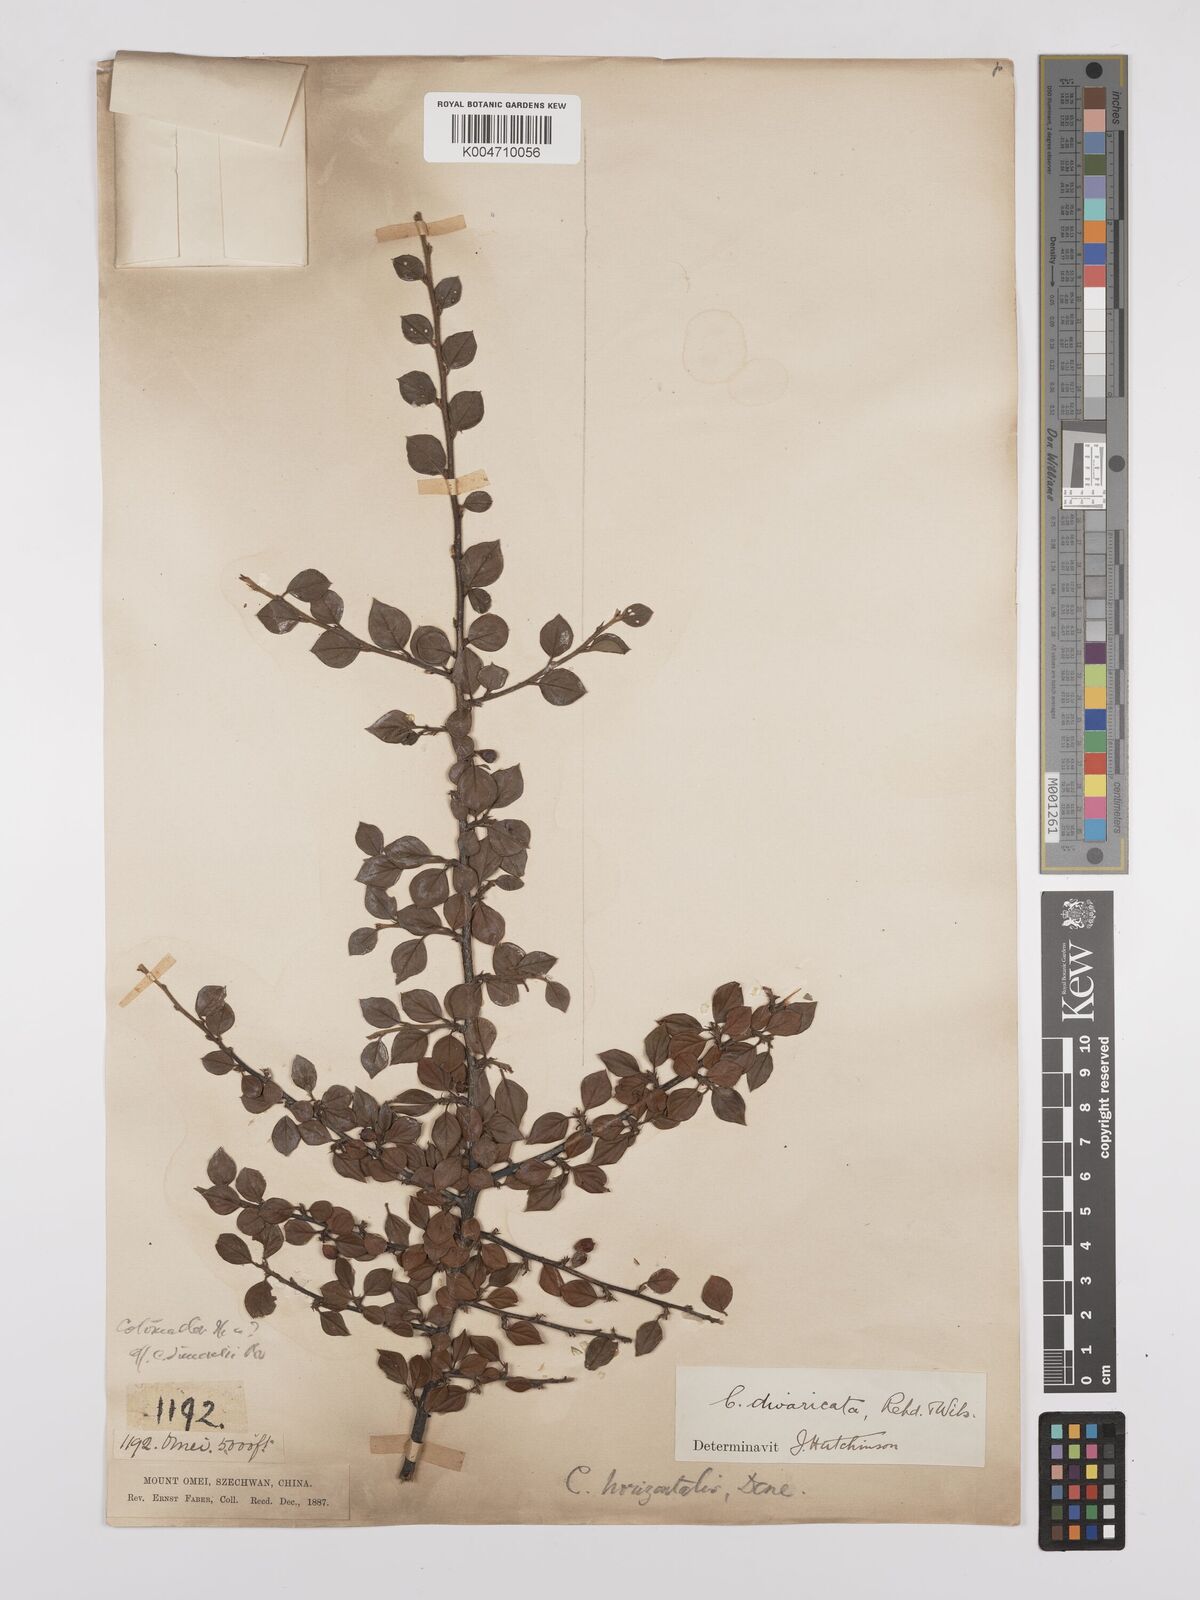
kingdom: Plantae
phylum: Tracheophyta
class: Magnoliopsida
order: Rosales
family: Rosaceae
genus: Cotoneaster
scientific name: Cotoneaster divaricatus
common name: Spreading cotoneaster
